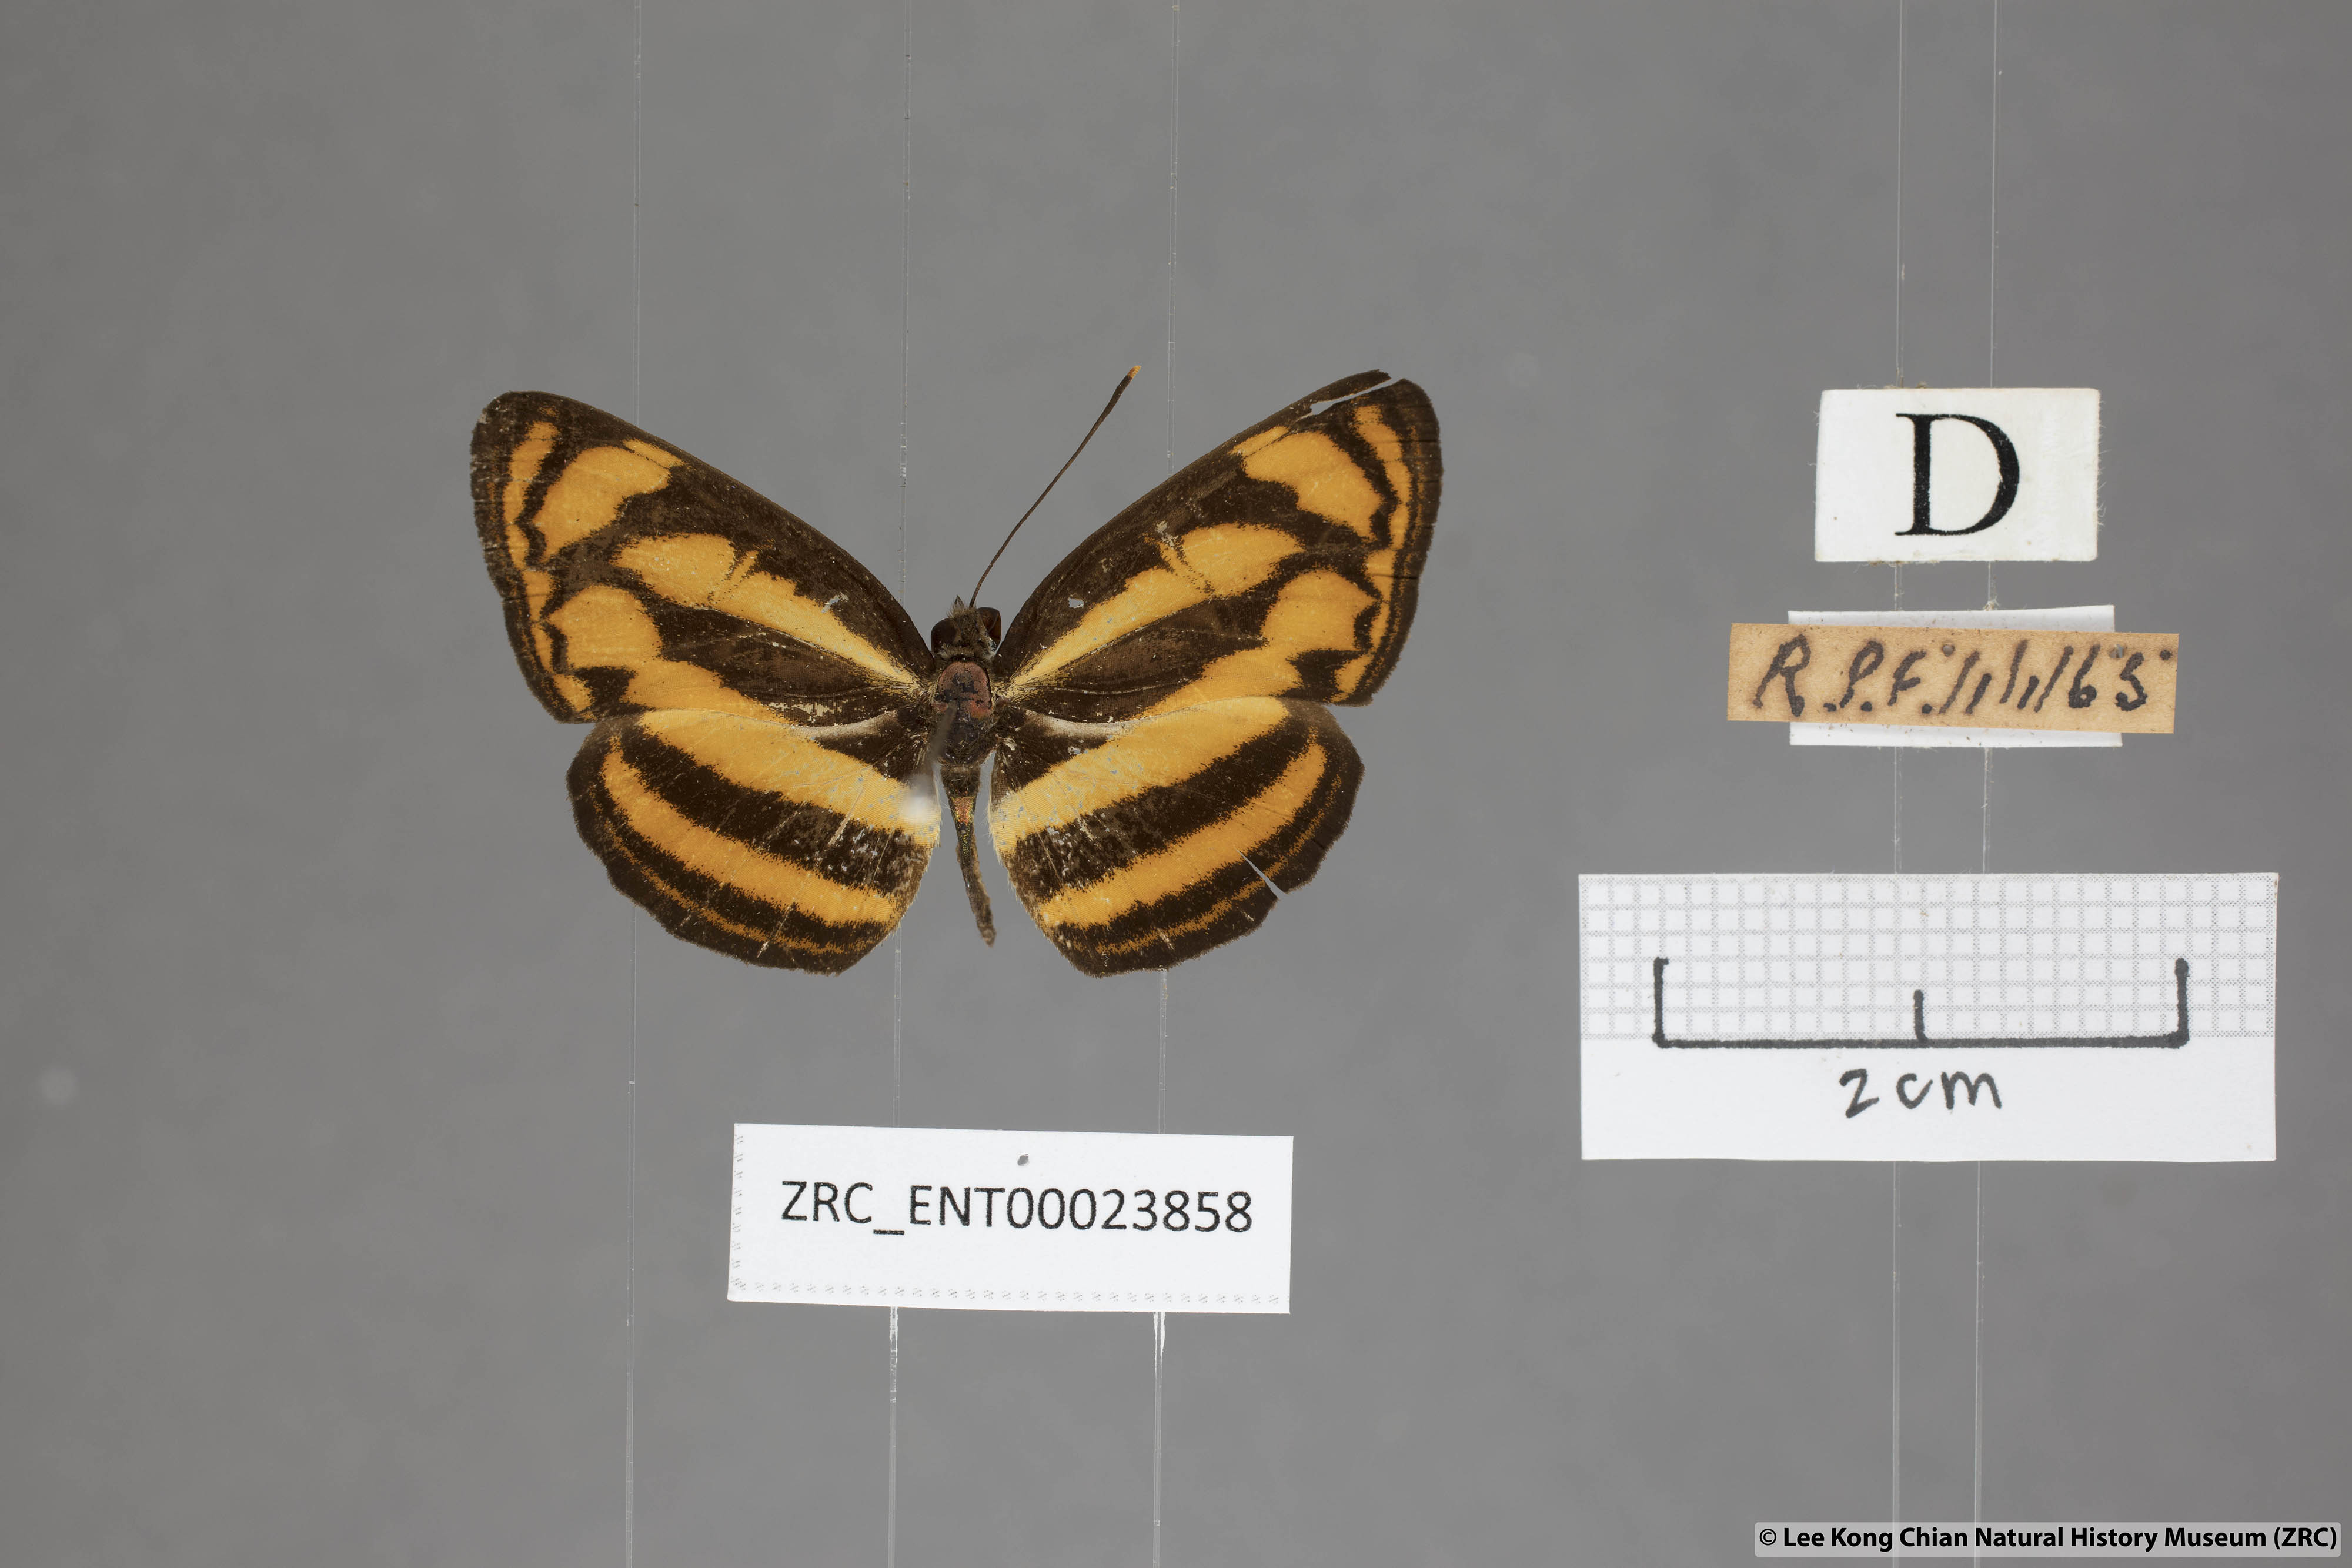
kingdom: Animalia
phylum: Arthropoda
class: Insecta
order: Lepidoptera
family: Nymphalidae
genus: Lasippa
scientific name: Lasippa tiga
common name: Malayan lascar
